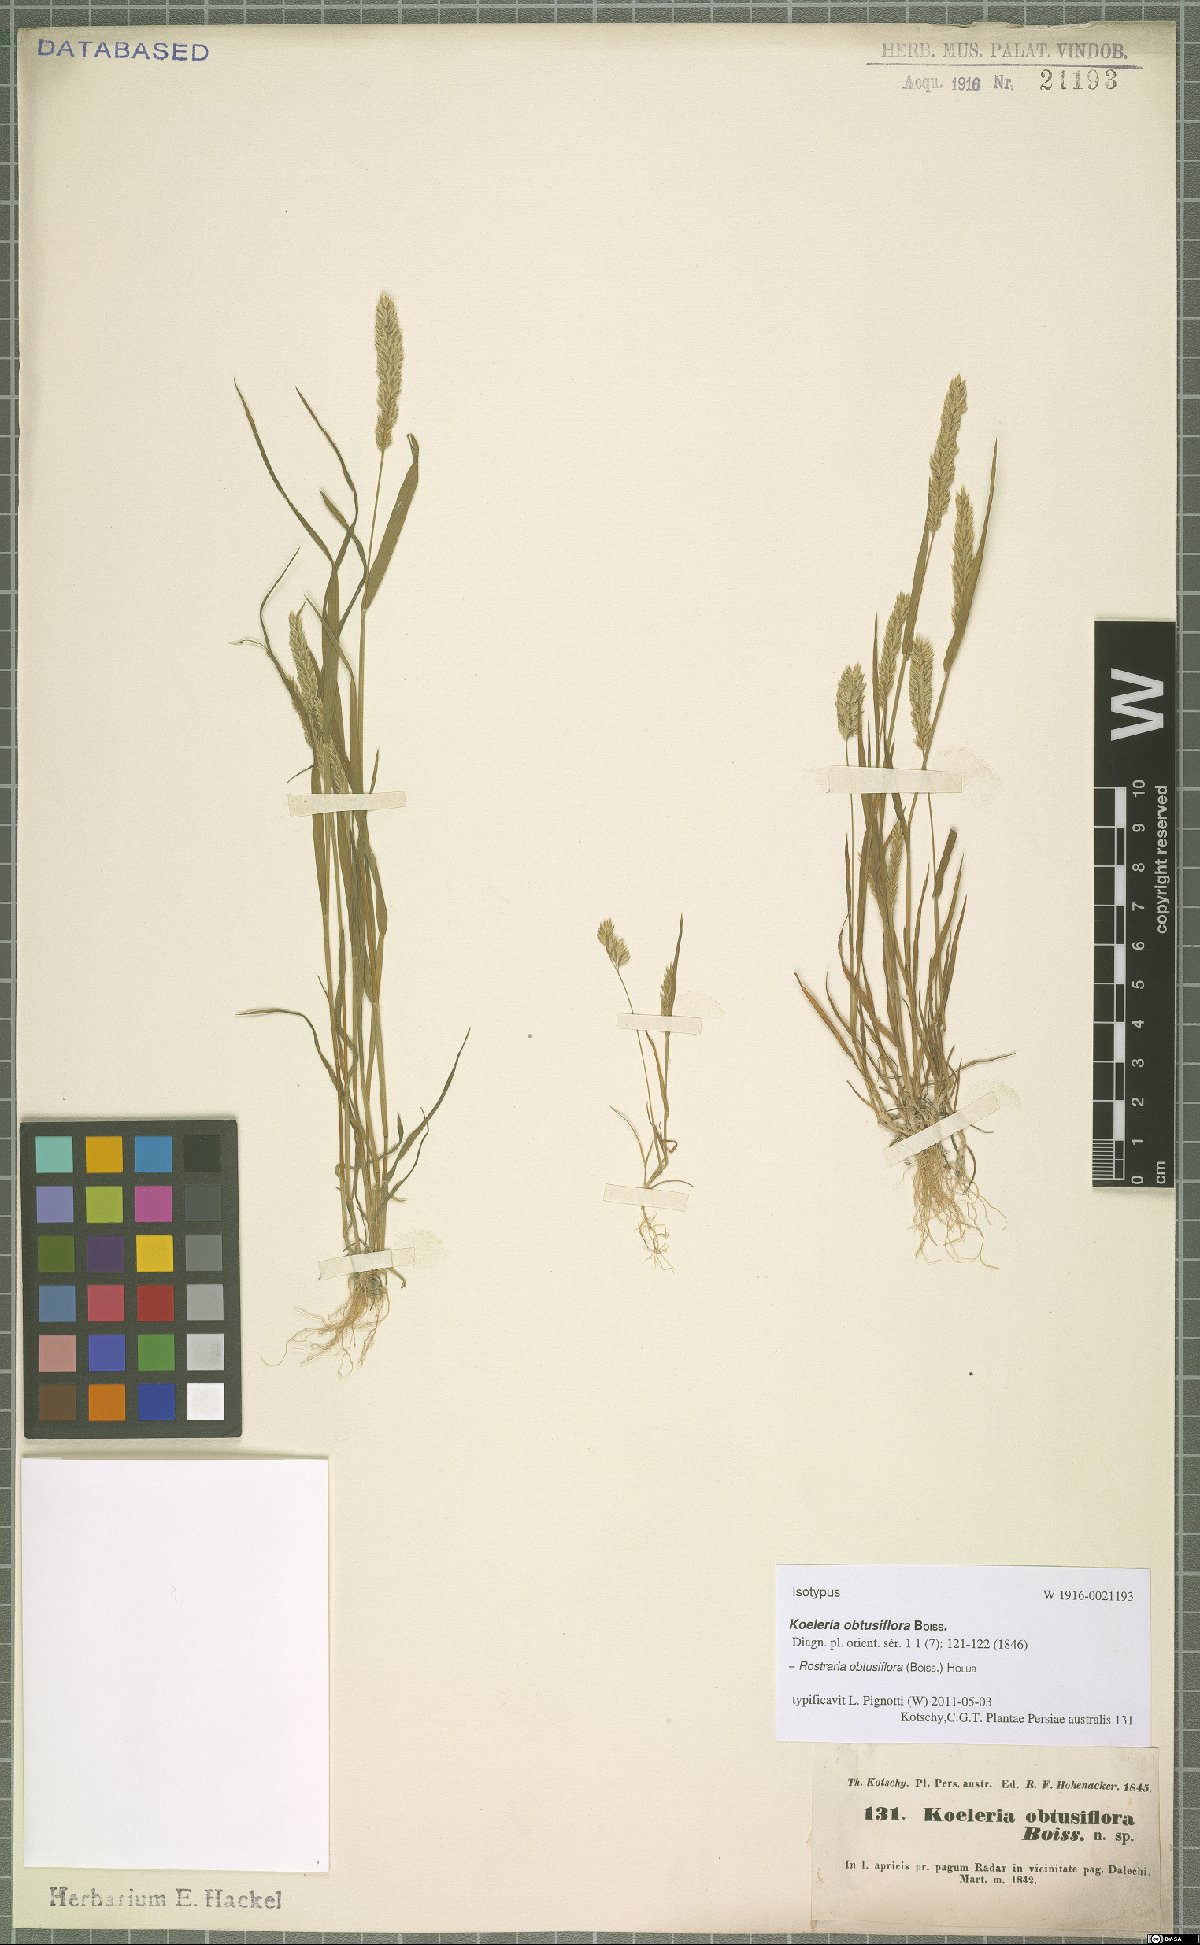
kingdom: Plantae
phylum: Tracheophyta
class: Liliopsida
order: Poales
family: Poaceae
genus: Rostraria
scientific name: Rostraria obtusiflora
